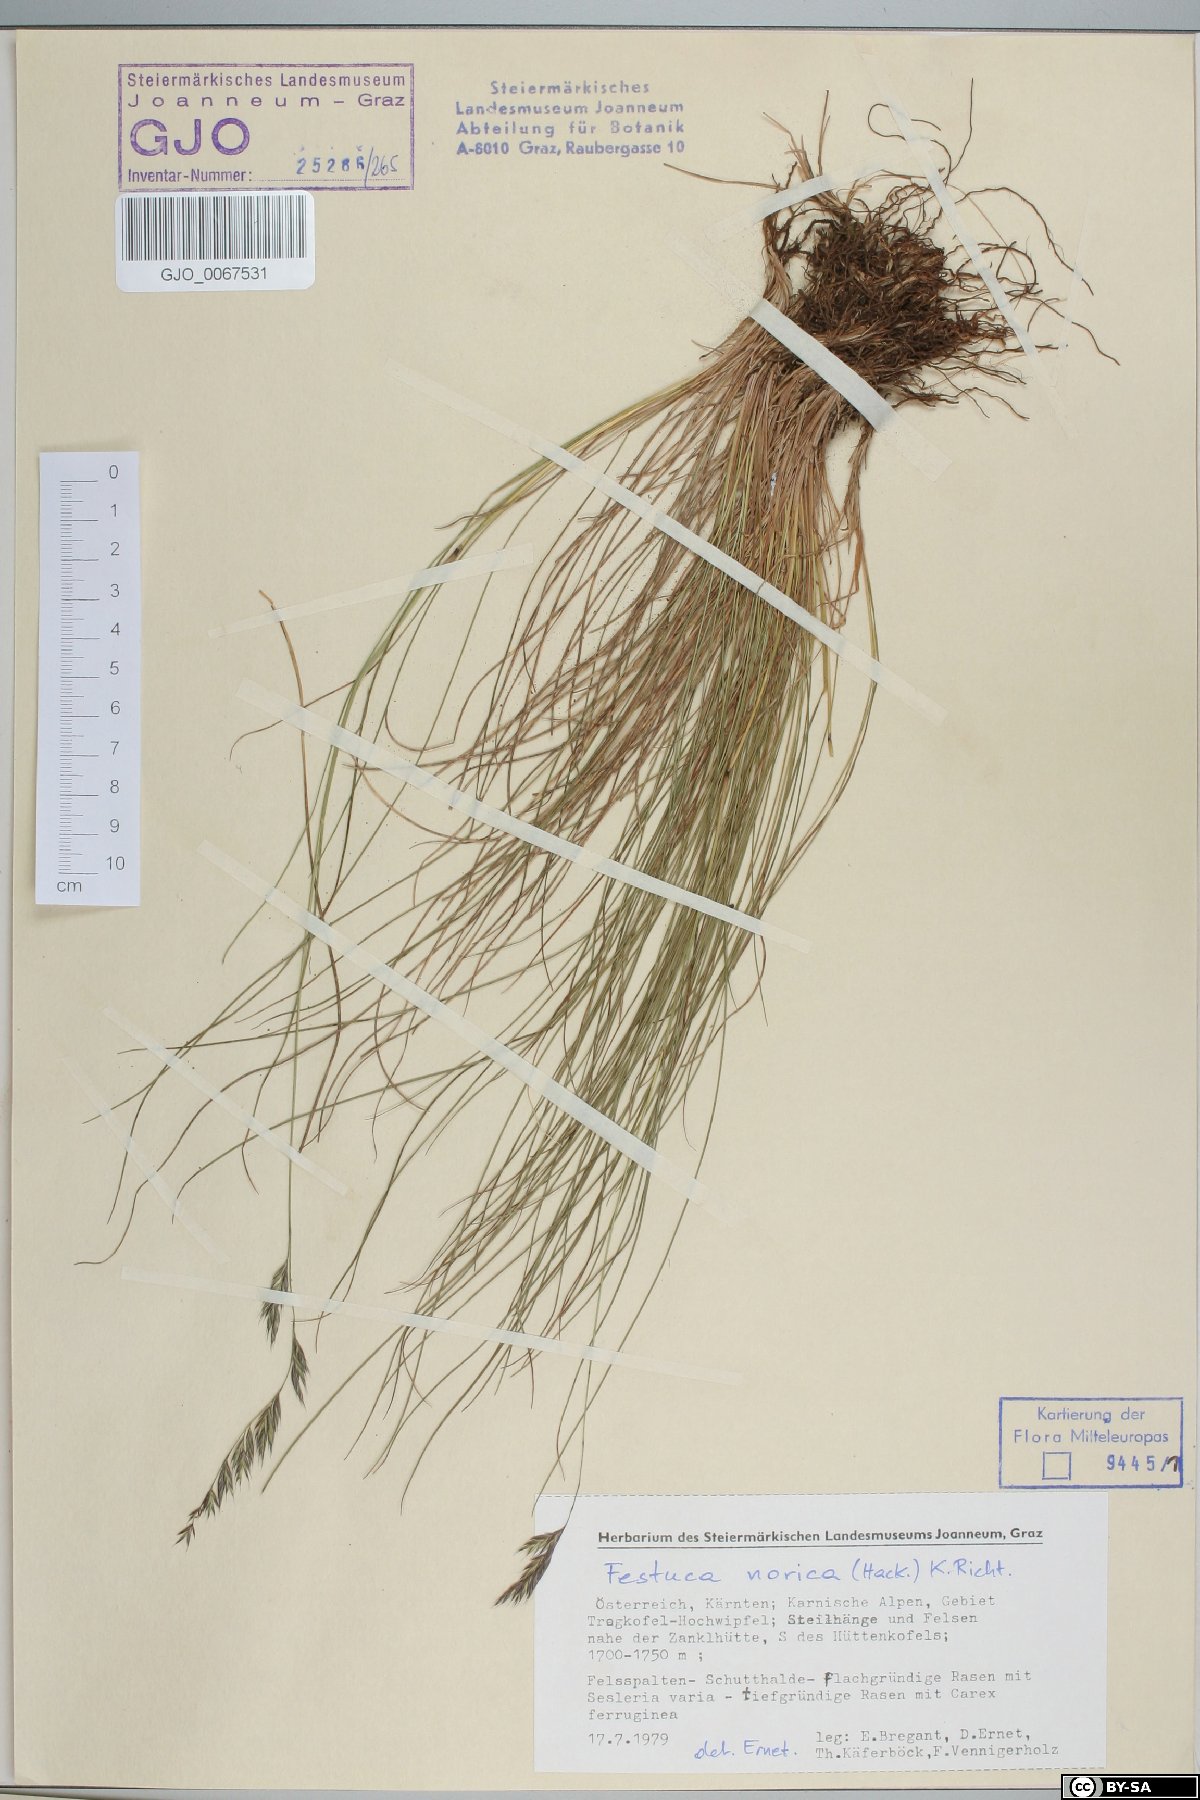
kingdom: Plantae
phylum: Tracheophyta
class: Liliopsida
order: Poales
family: Poaceae
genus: Festuca
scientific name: Festuca norica
